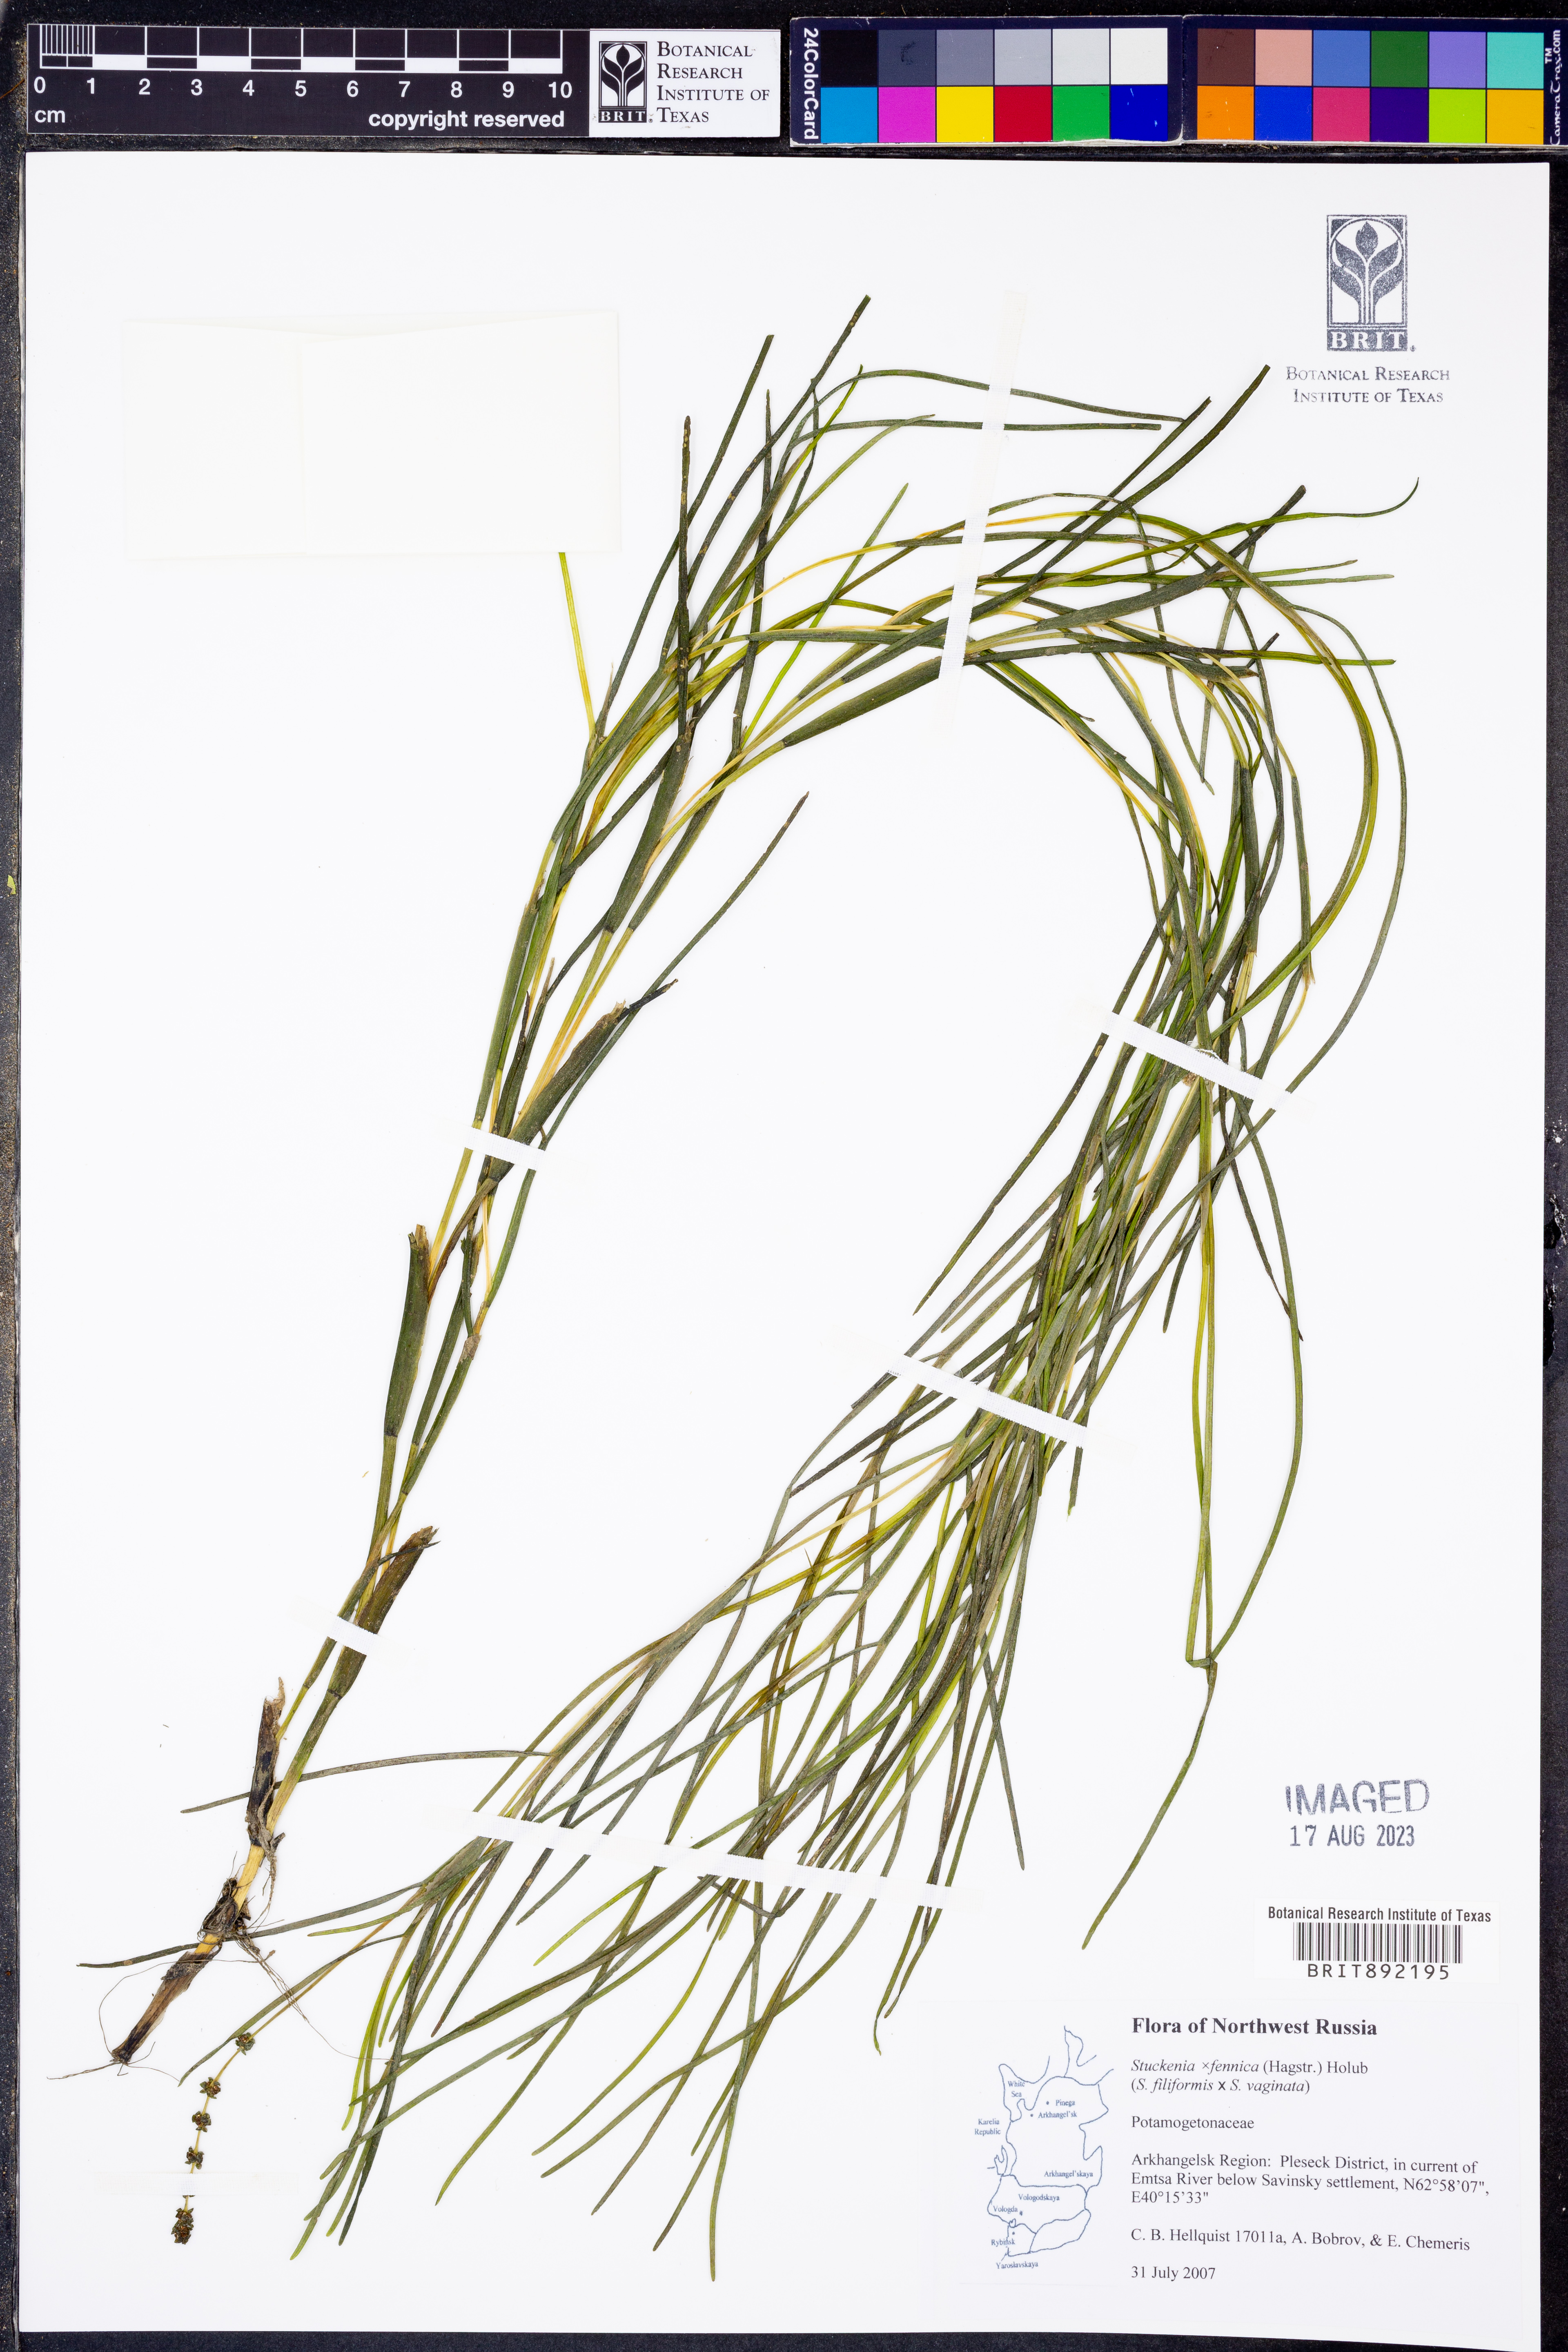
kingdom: Plantae
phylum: Tracheophyta
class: Liliopsida
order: Alismatales
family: Potamogetonaceae
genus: Stuckenia
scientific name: Stuckenia fennica
